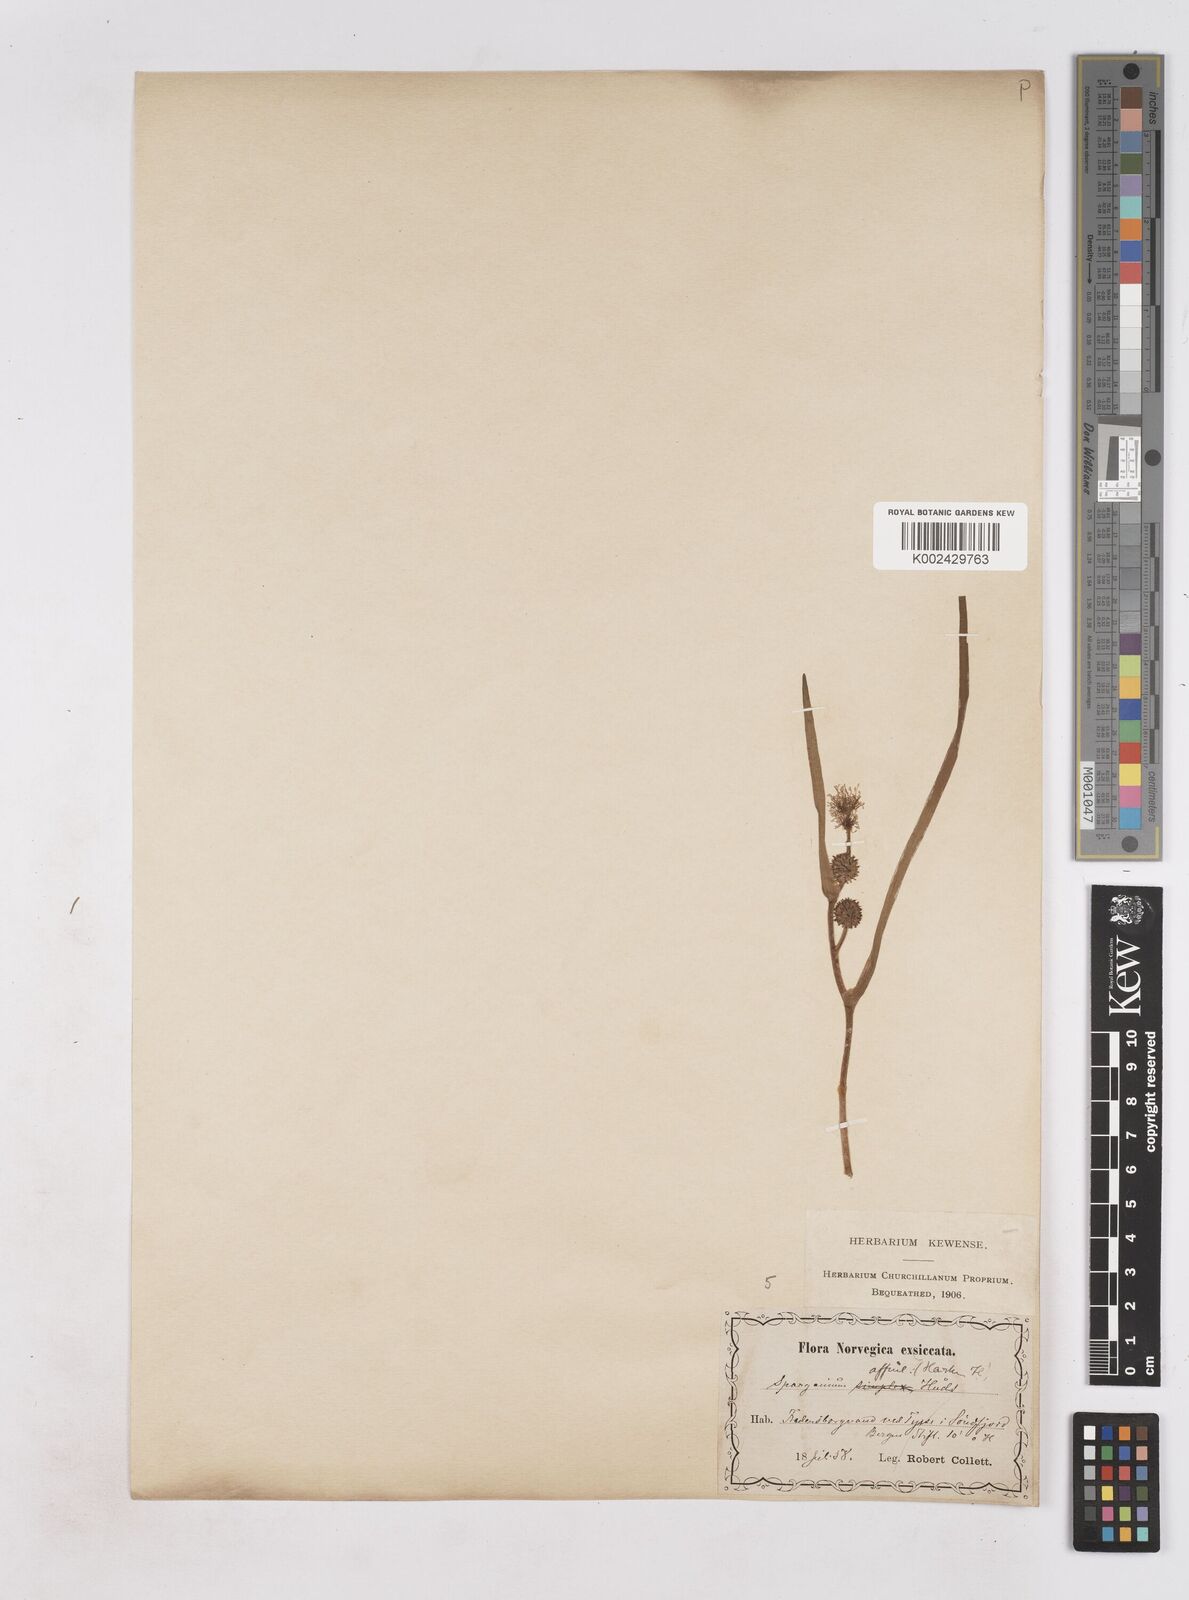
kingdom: Plantae
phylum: Tracheophyta
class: Liliopsida
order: Poales
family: Typhaceae
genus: Sparganium
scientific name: Sparganium angustifolium
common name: Floating bur-reed
